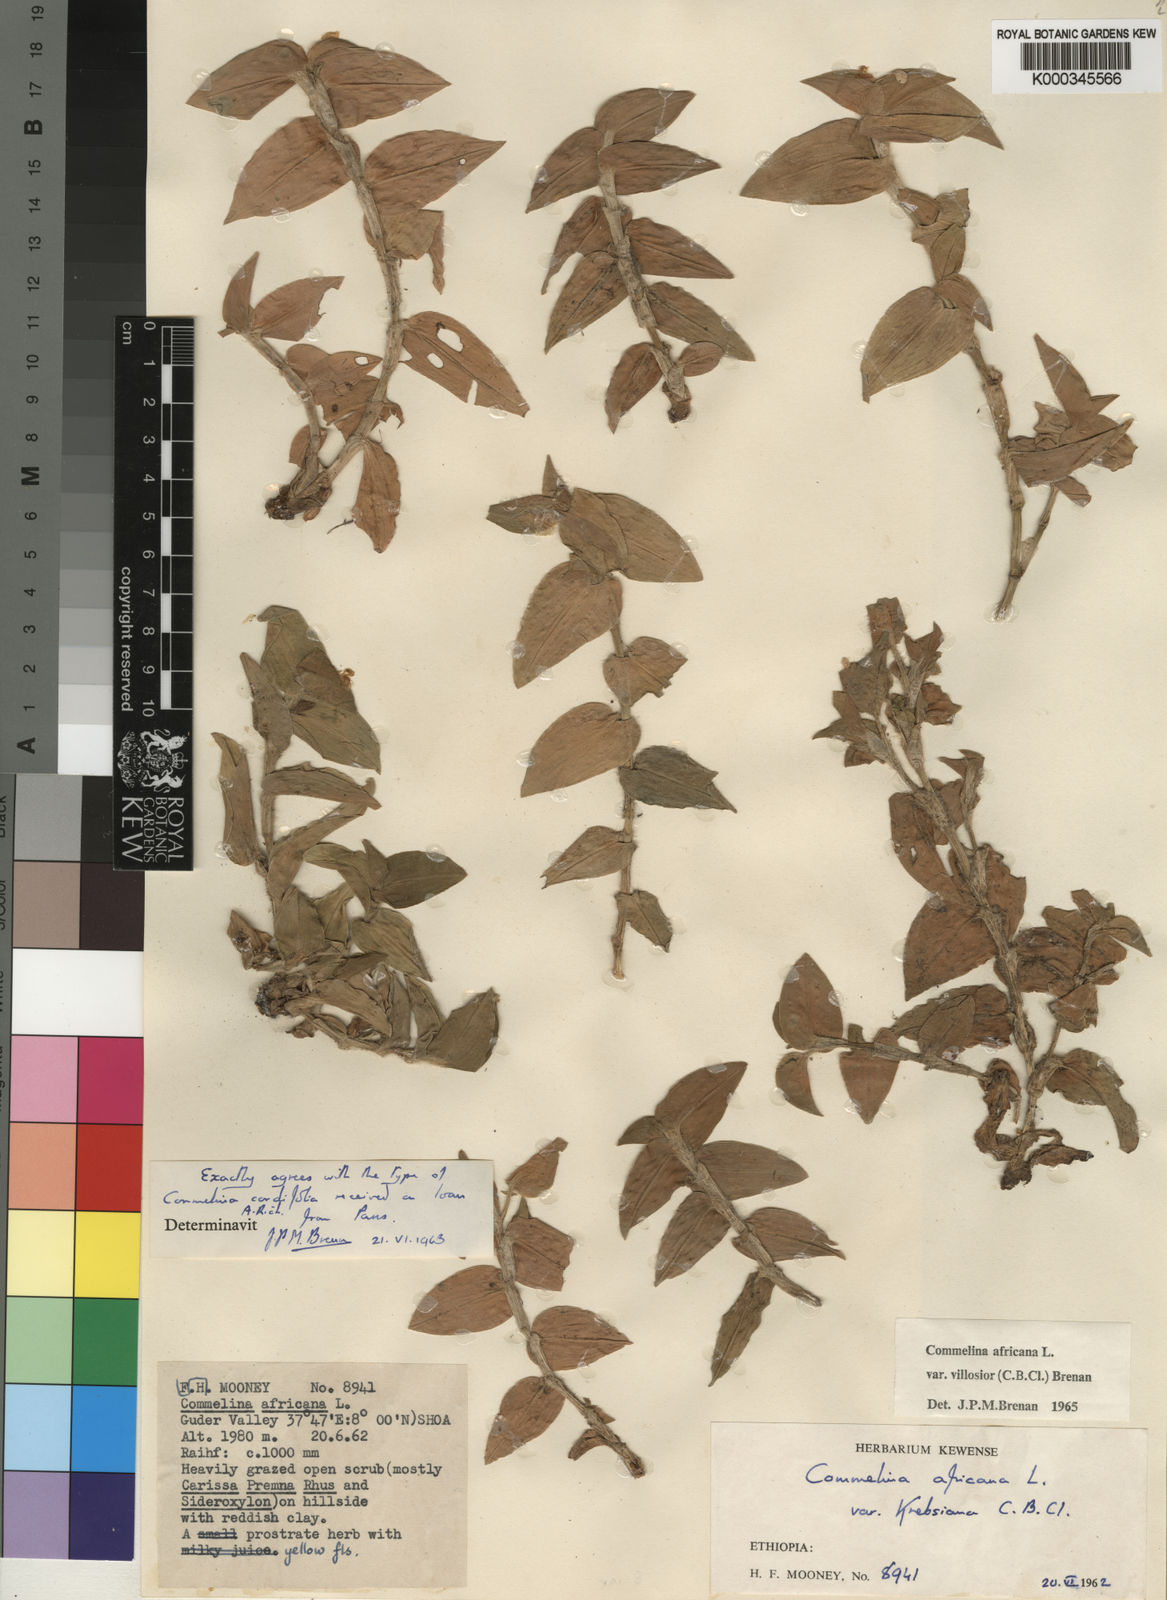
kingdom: Plantae
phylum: Tracheophyta
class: Liliopsida
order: Commelinales
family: Commelinaceae
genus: Commelina
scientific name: Commelina africana
